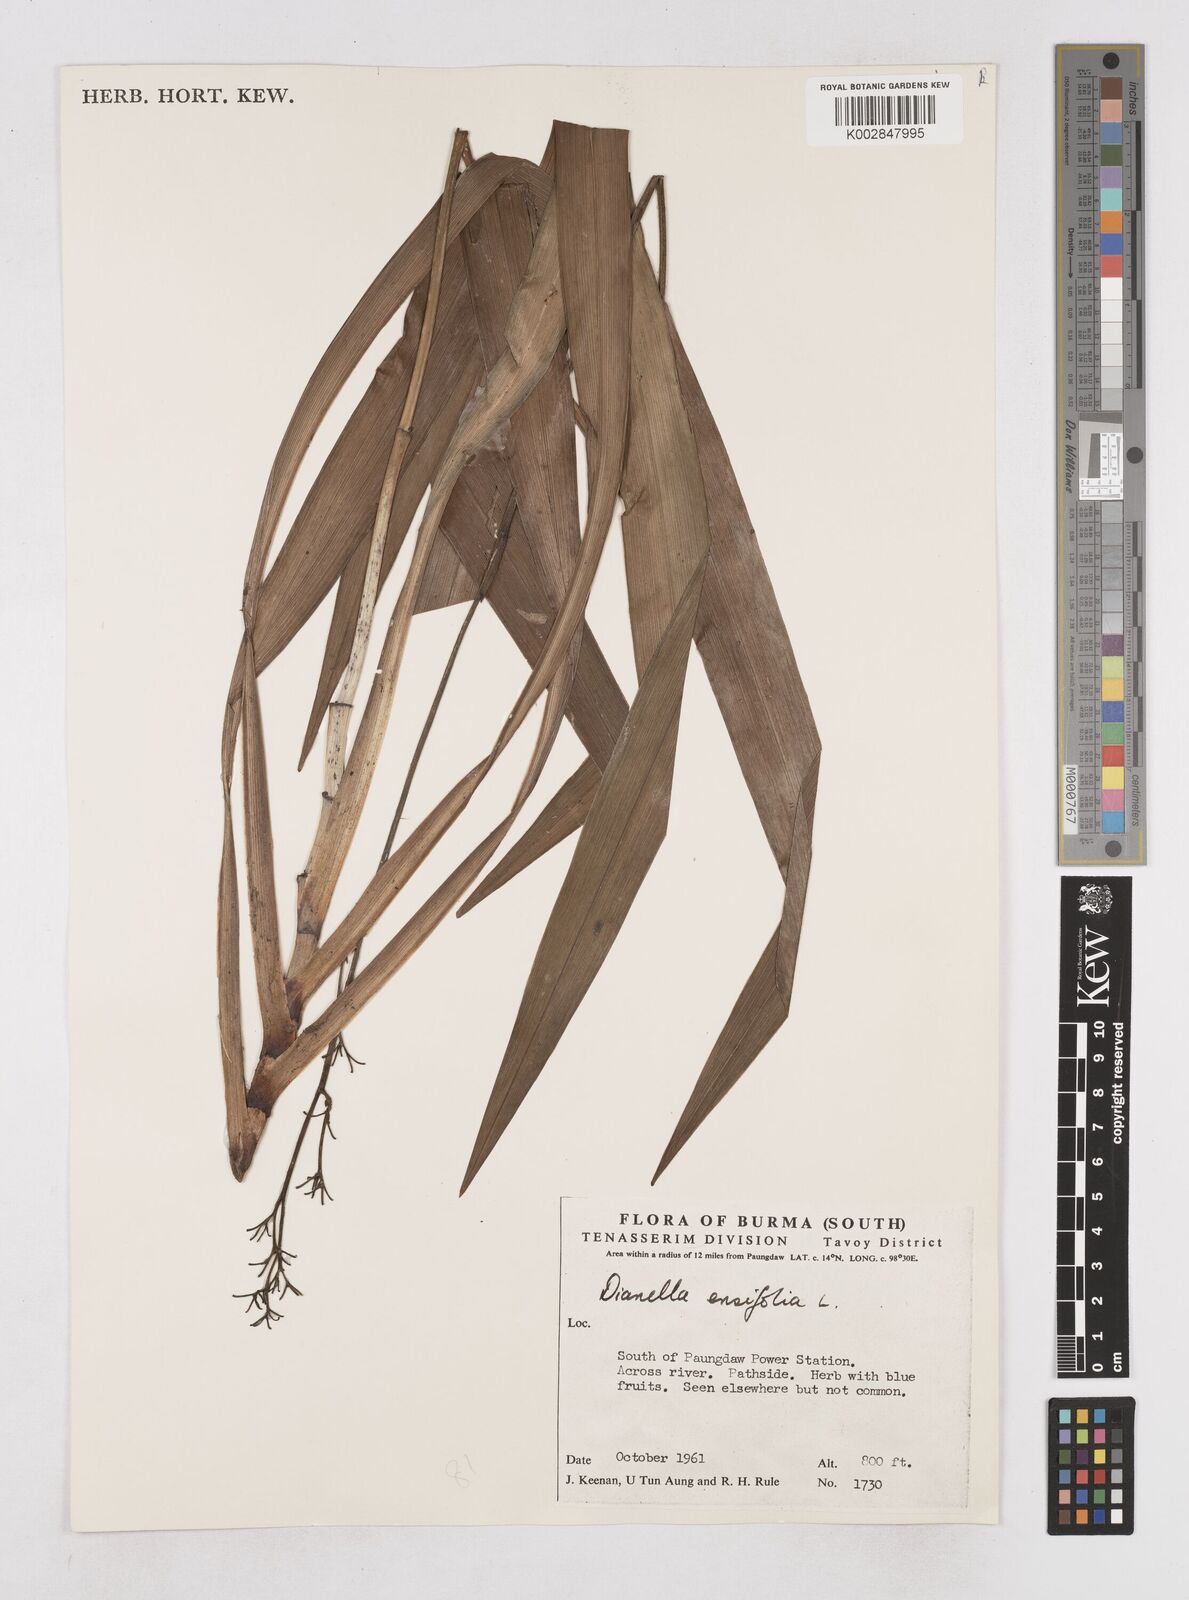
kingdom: Plantae
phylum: Tracheophyta
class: Liliopsida
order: Asparagales
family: Asphodelaceae
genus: Dianella
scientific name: Dianella ensifolia
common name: New zealand lilyplant
